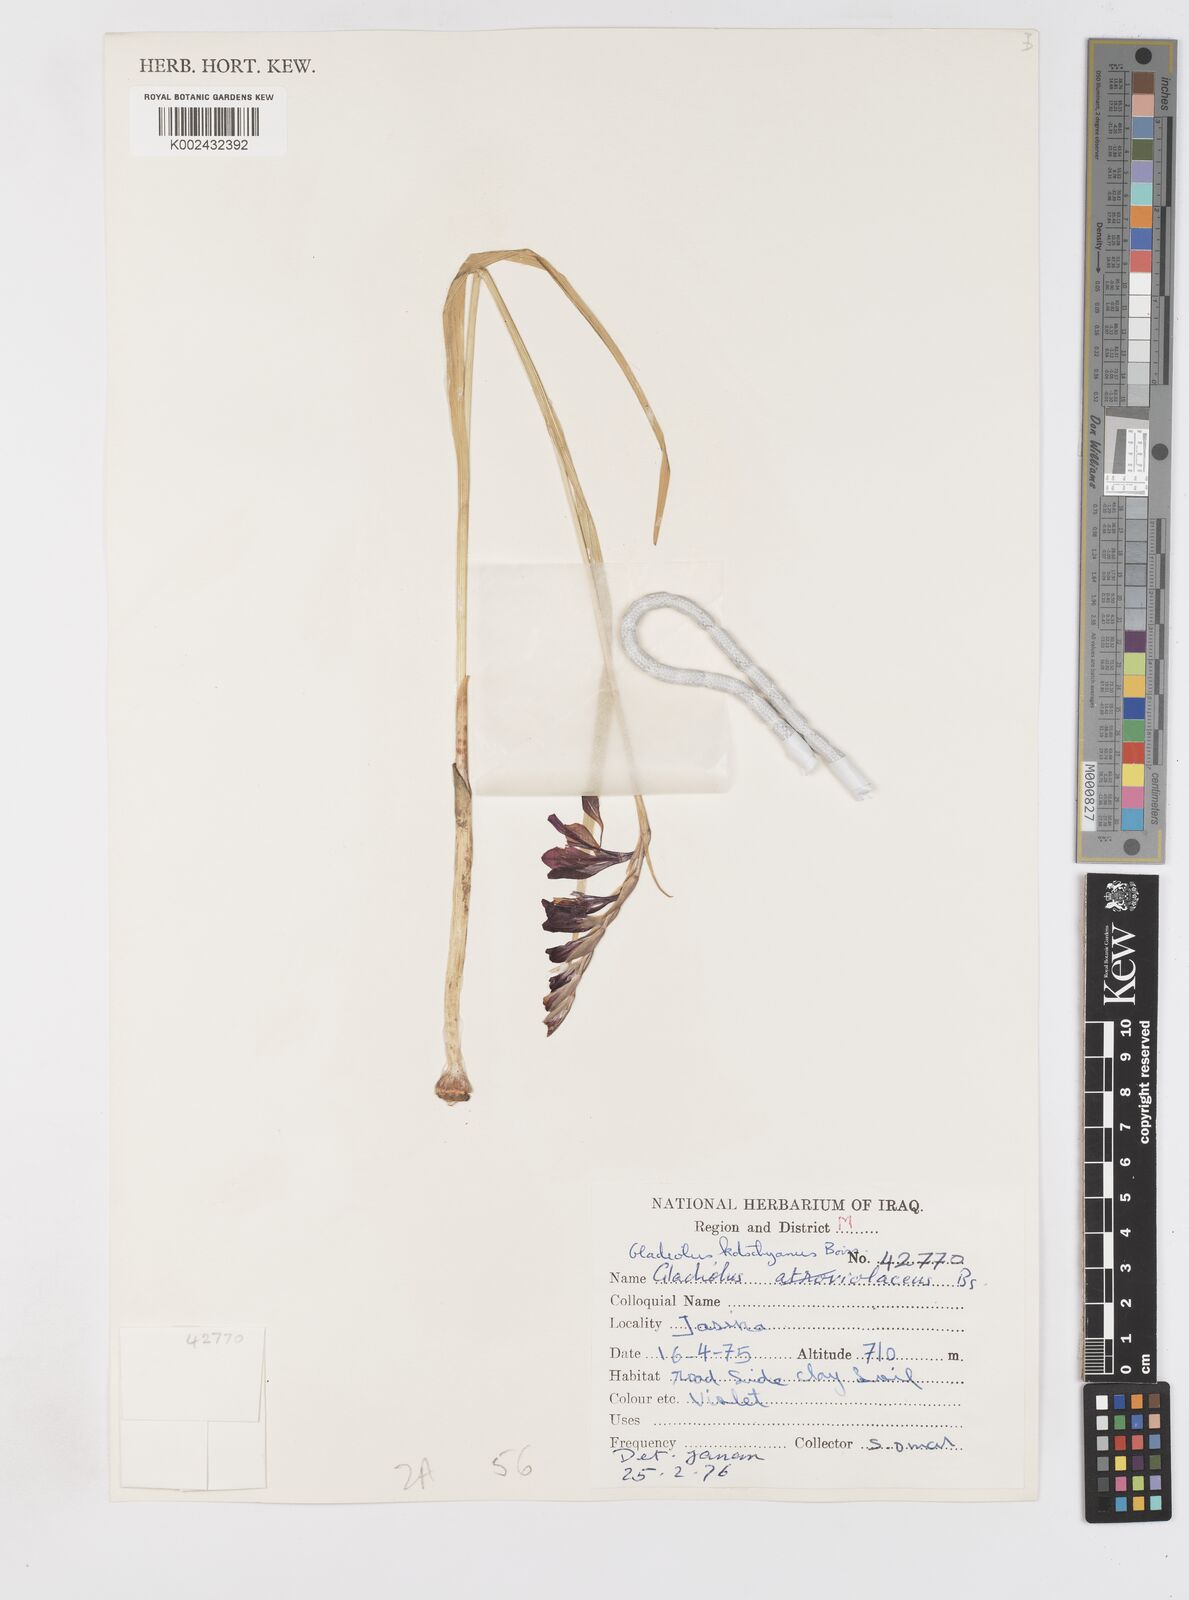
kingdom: Plantae
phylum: Tracheophyta
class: Liliopsida
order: Asparagales
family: Iridaceae
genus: Gladiolus
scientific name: Gladiolus kotschyanus
